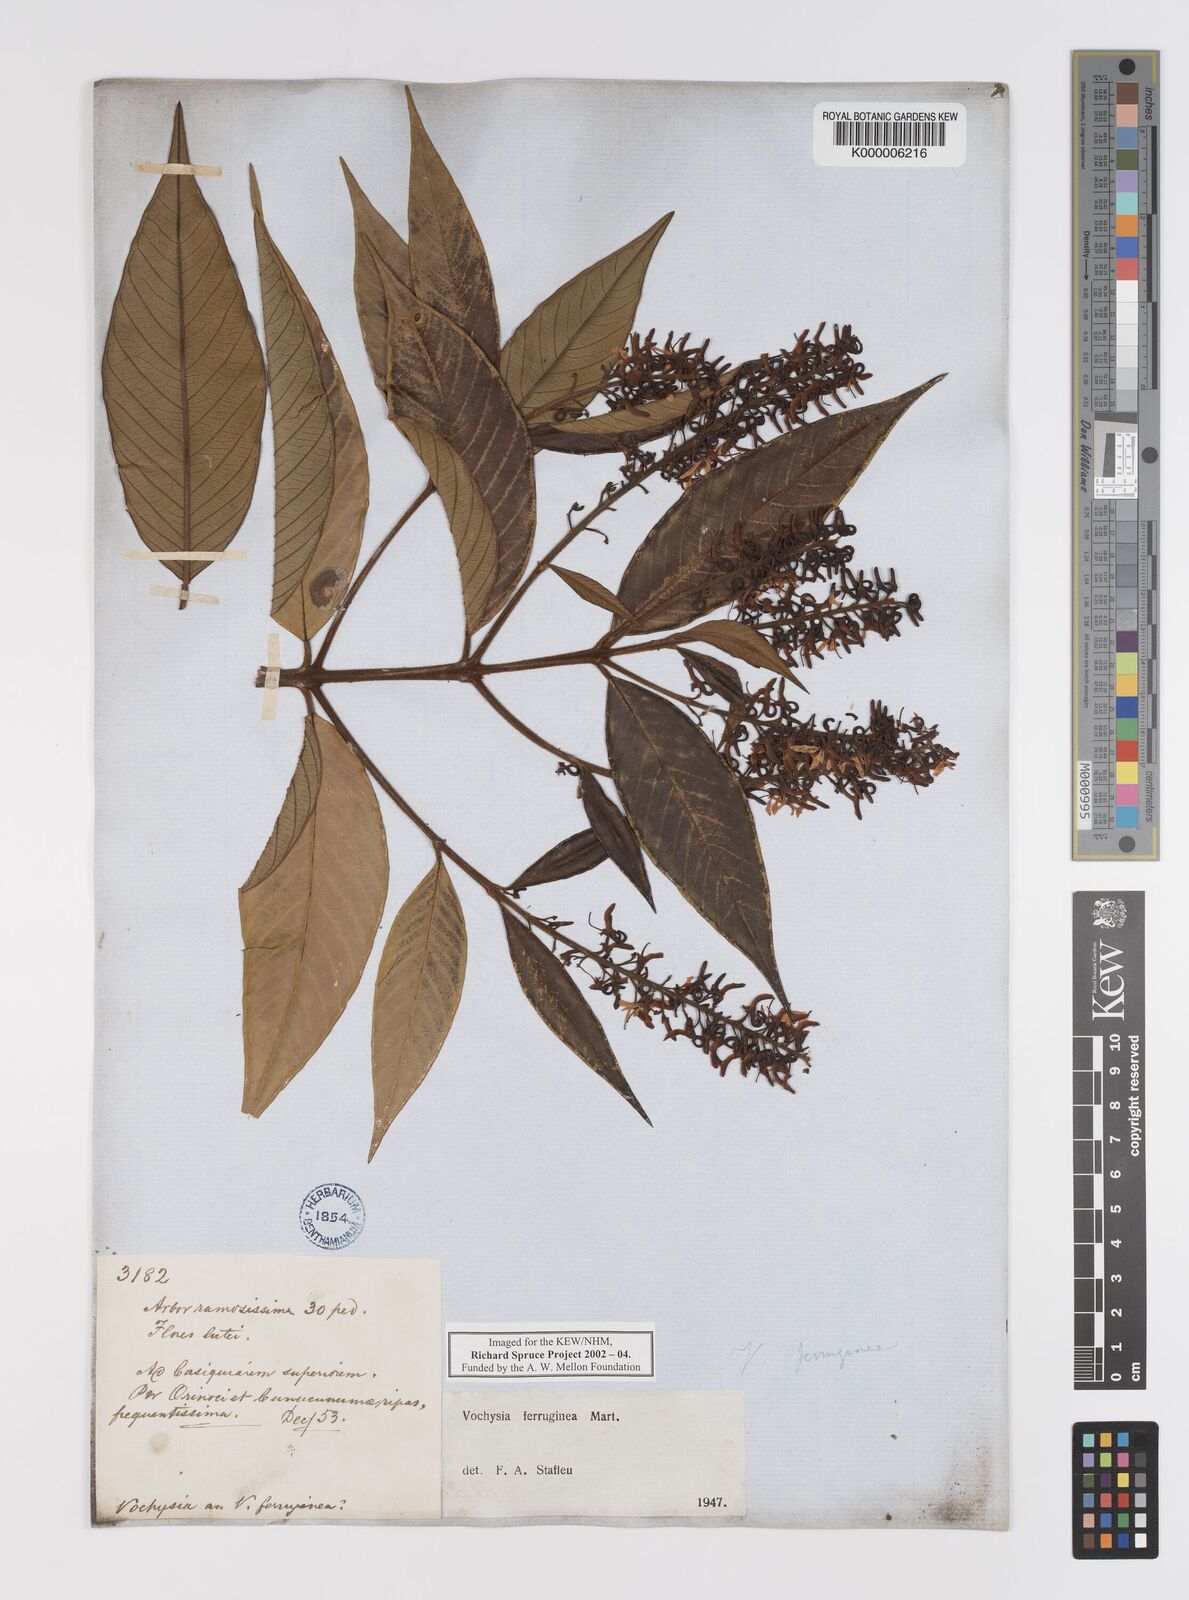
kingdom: Plantae
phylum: Tracheophyta
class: Magnoliopsida
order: Myrtales
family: Vochysiaceae
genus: Vochysia
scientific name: Vochysia
